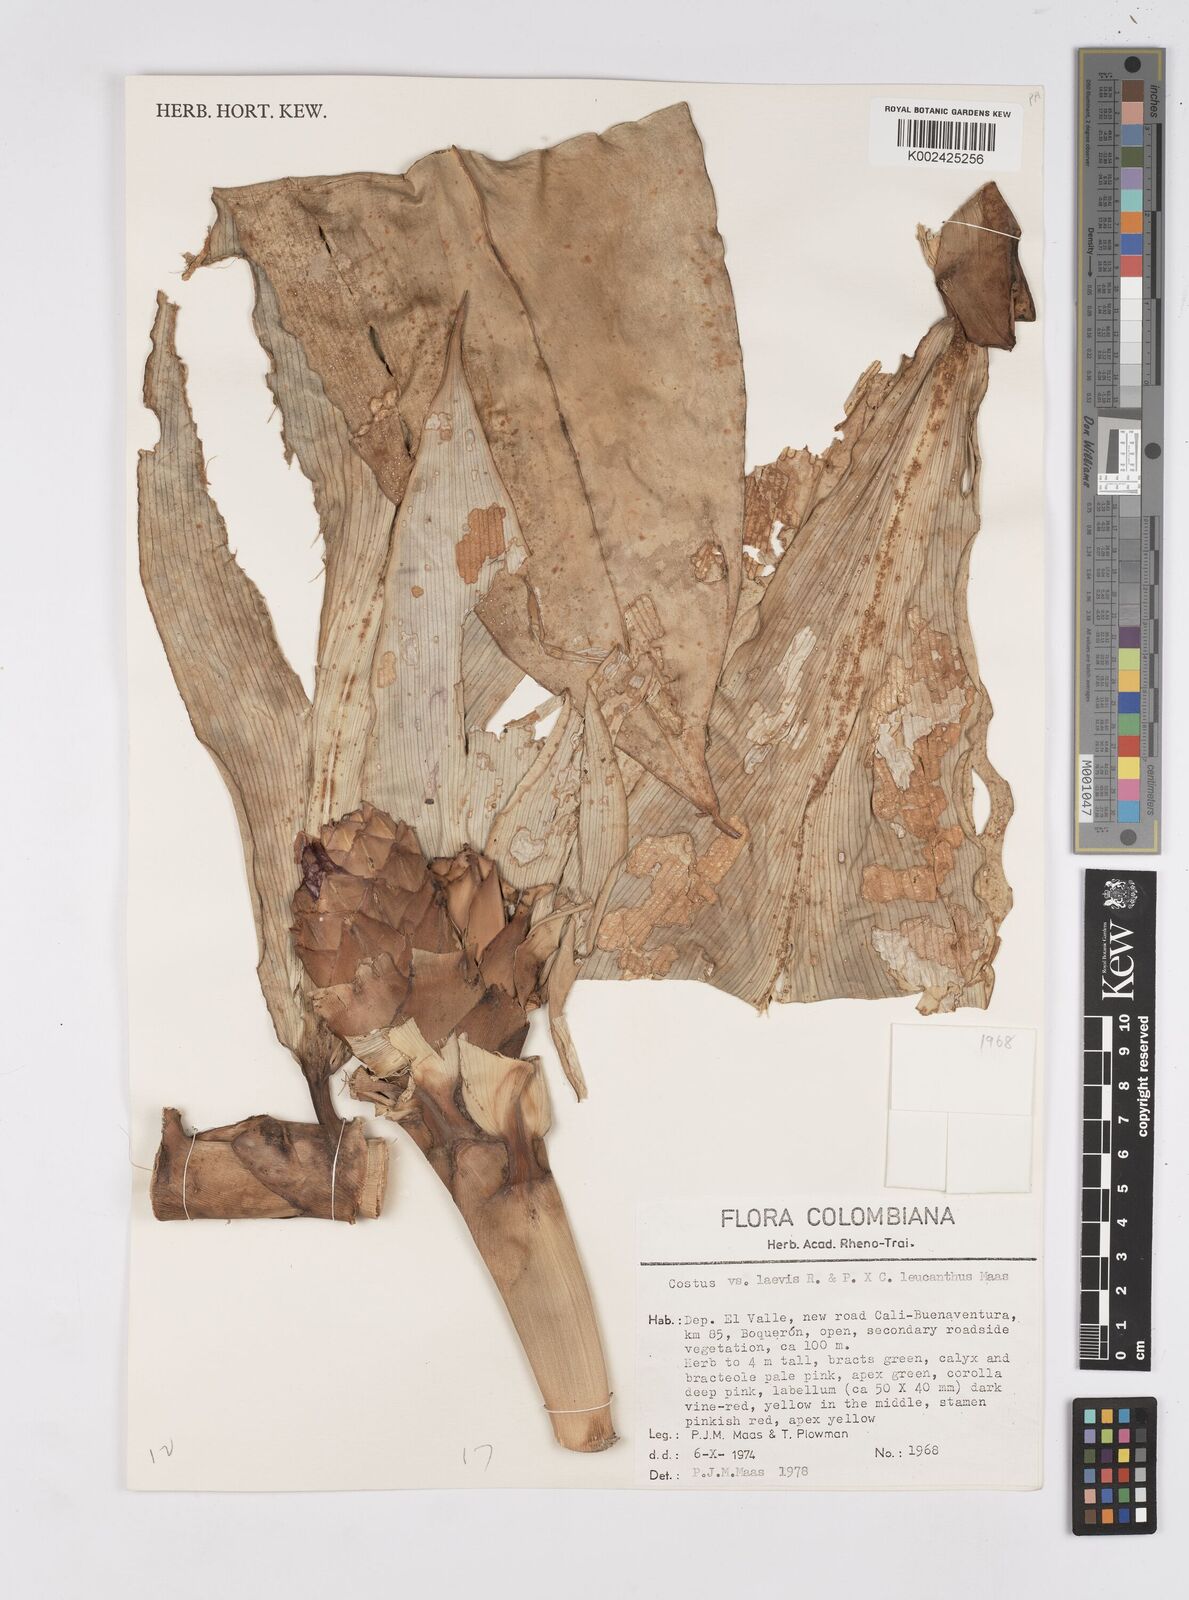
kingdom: Plantae
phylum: Tracheophyta
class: Liliopsida
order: Zingiberales
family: Costaceae
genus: Costus
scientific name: Costus laevis
